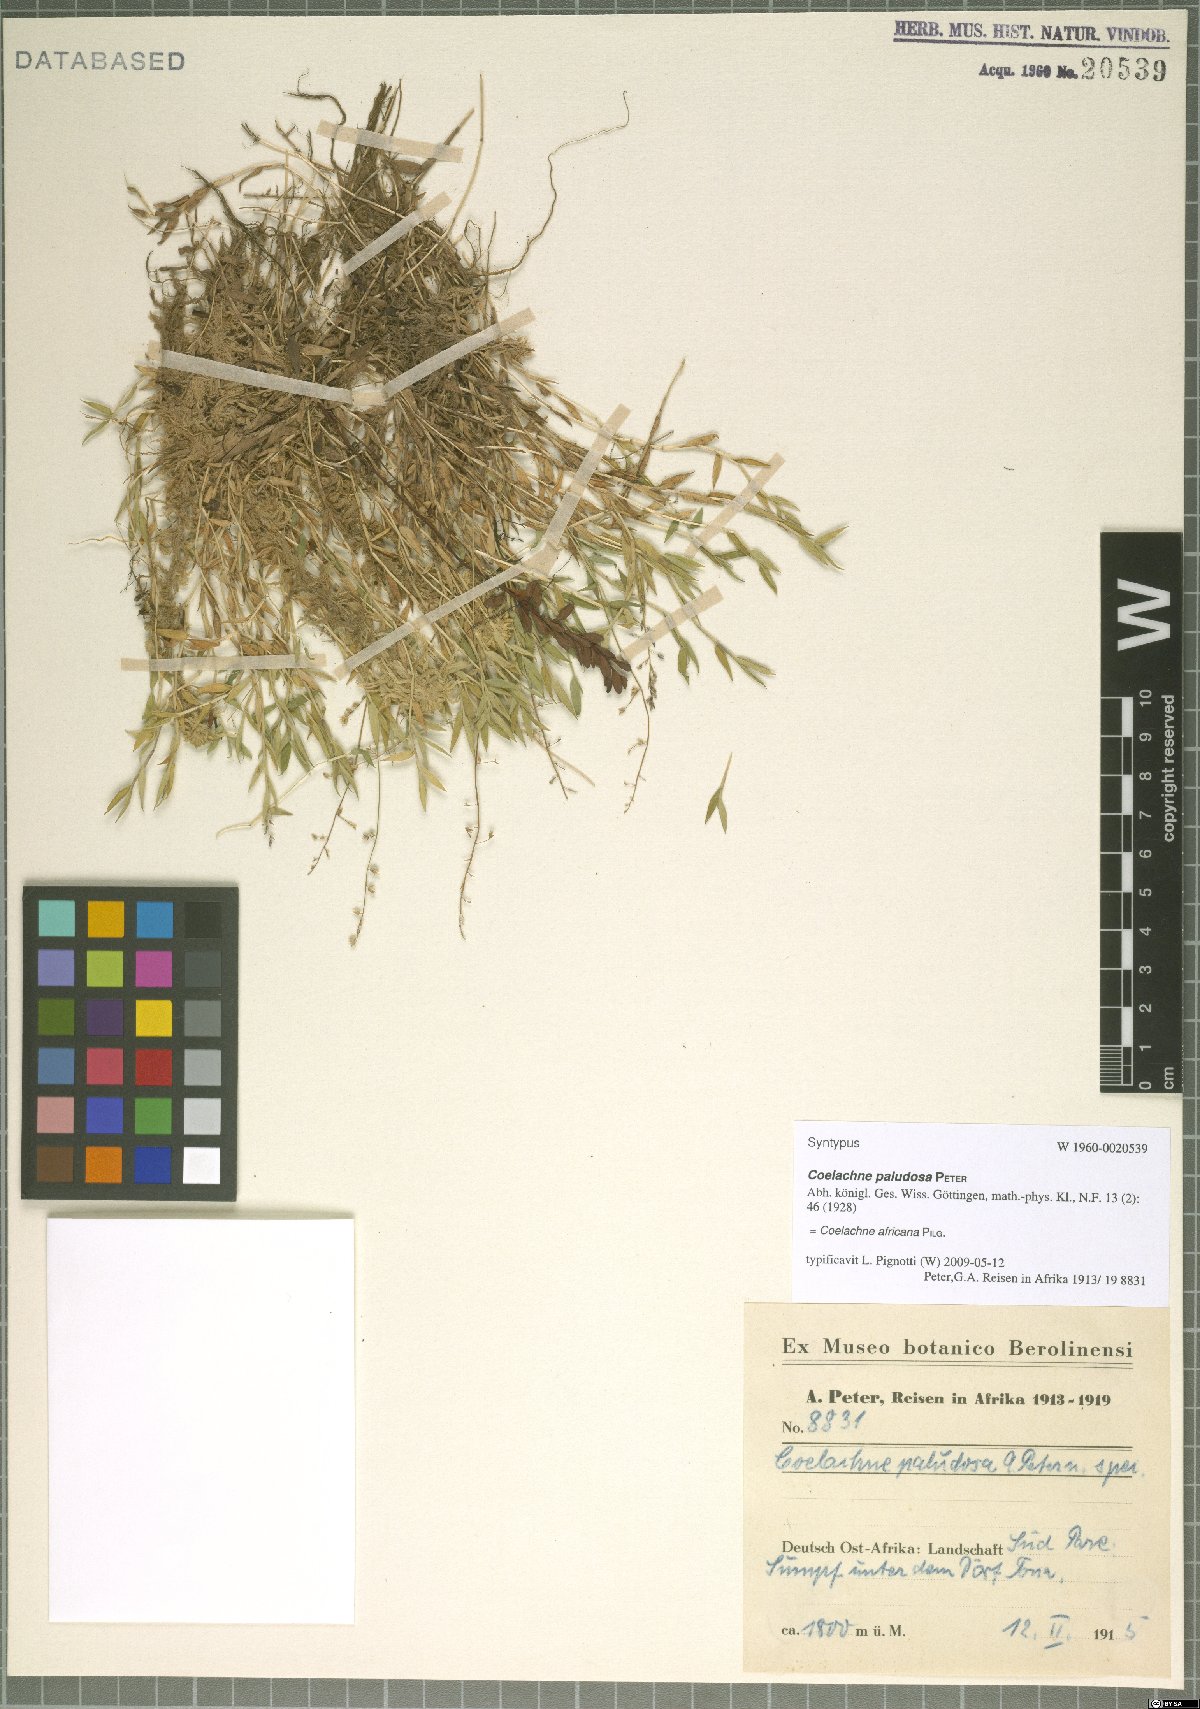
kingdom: Plantae
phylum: Tracheophyta
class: Liliopsida
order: Poales
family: Poaceae
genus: Coelachne
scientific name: Coelachne africana
